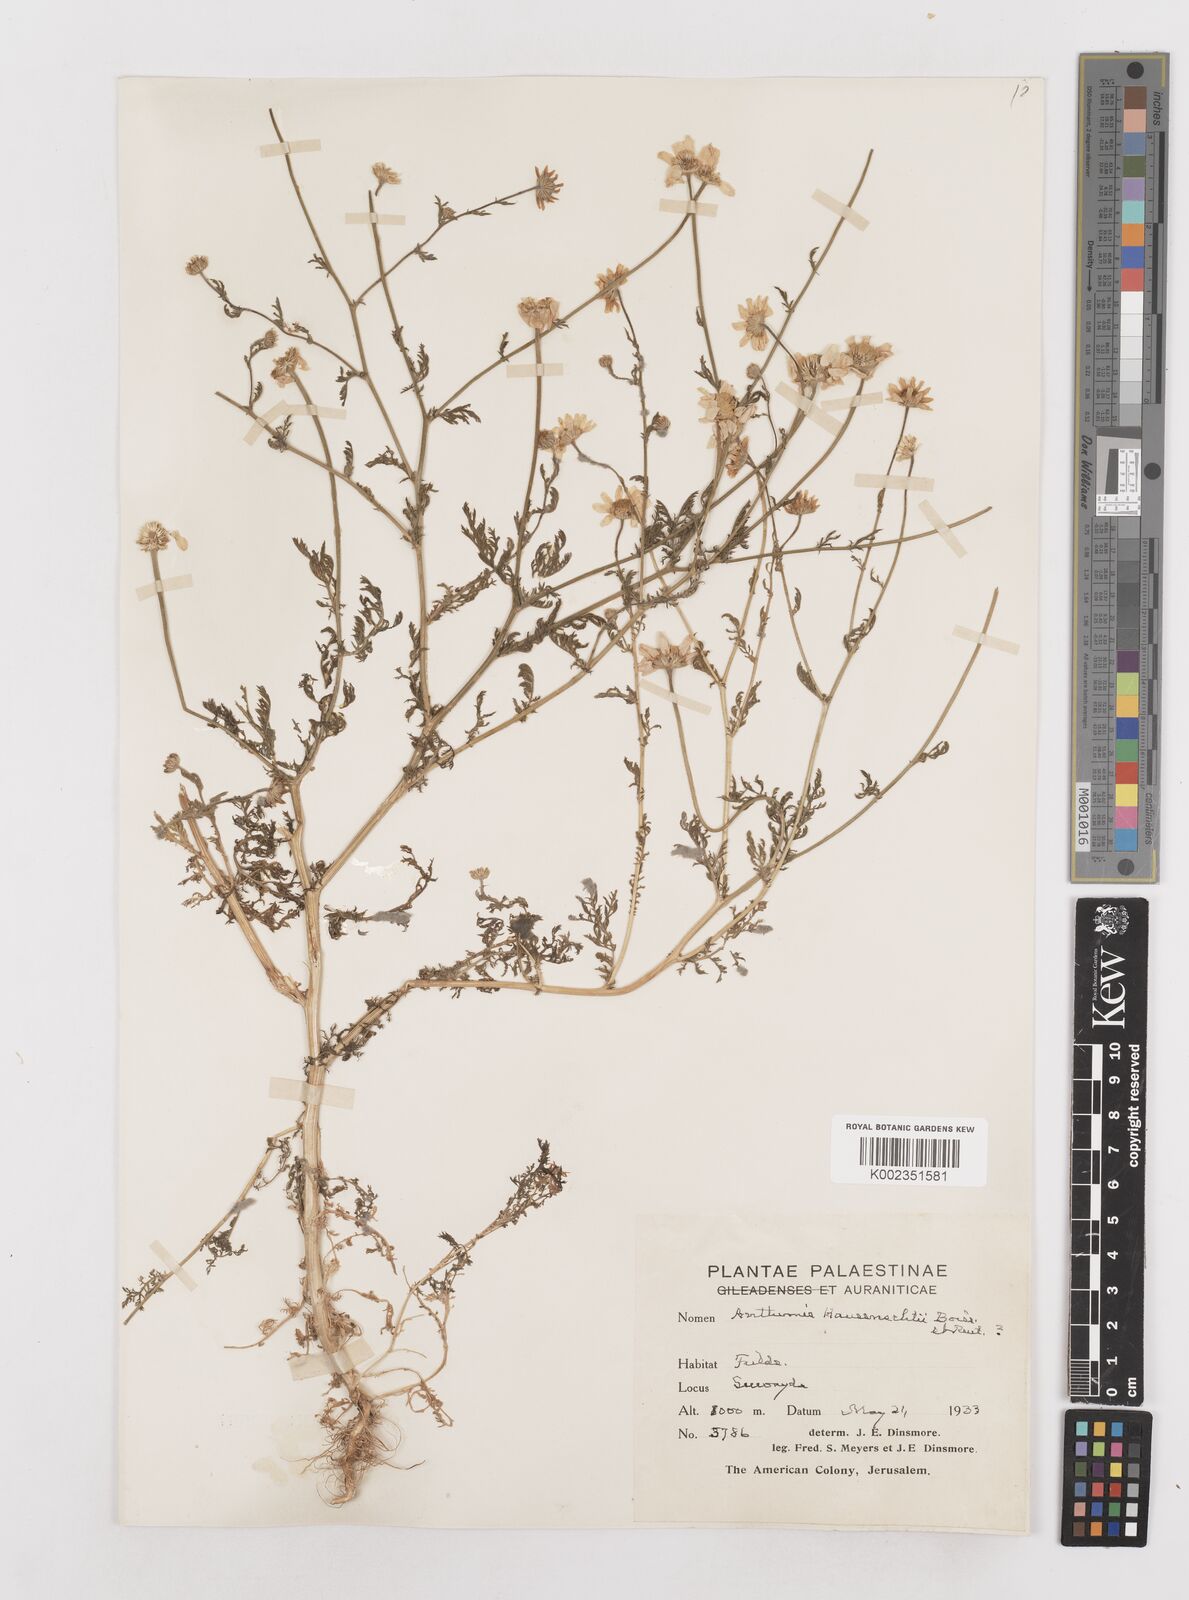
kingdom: Plantae
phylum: Tracheophyta
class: Magnoliopsida
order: Asterales
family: Asteraceae
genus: Anthemis
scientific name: Anthemis haussknechtii
